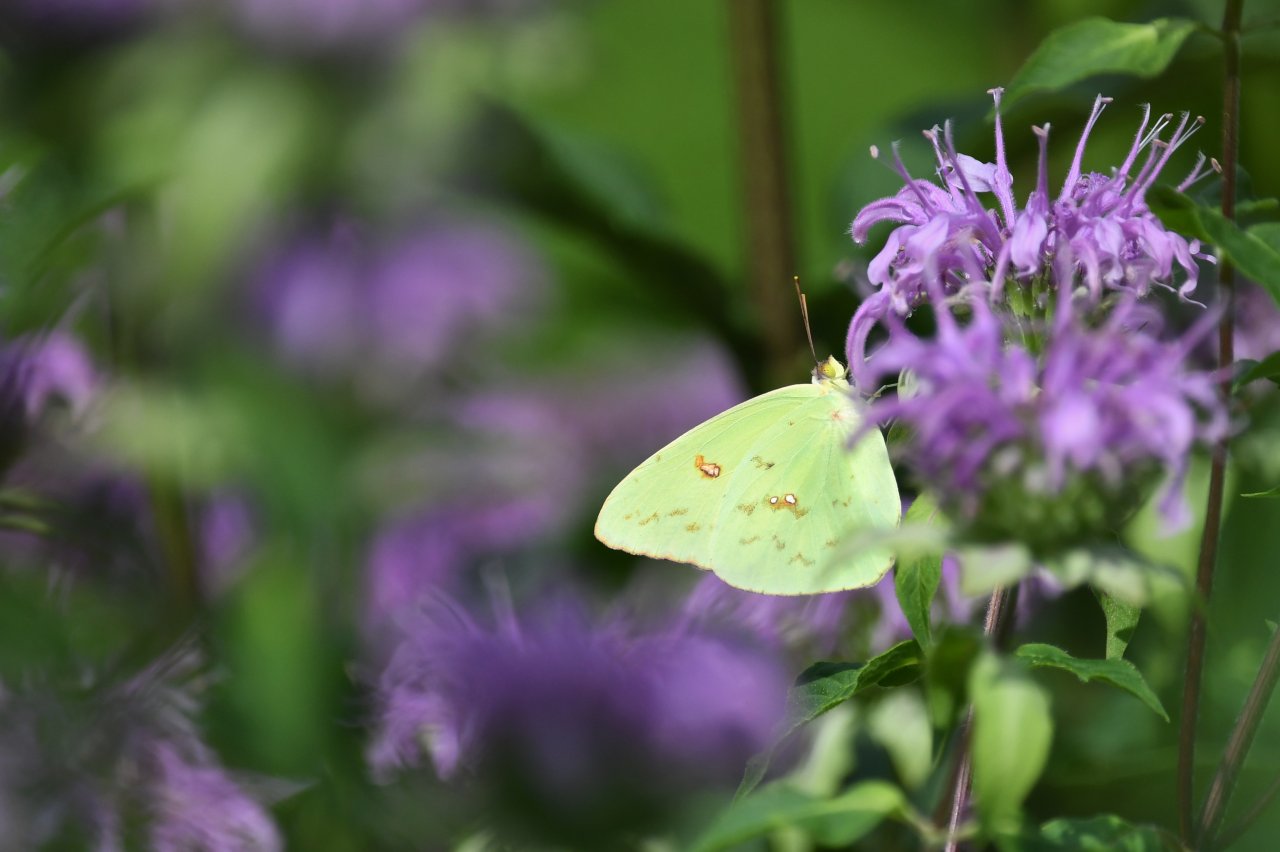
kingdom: Animalia
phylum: Arthropoda
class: Insecta
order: Lepidoptera
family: Pieridae
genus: Phoebis
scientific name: Phoebis sennae
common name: Cloudless Sulphur
